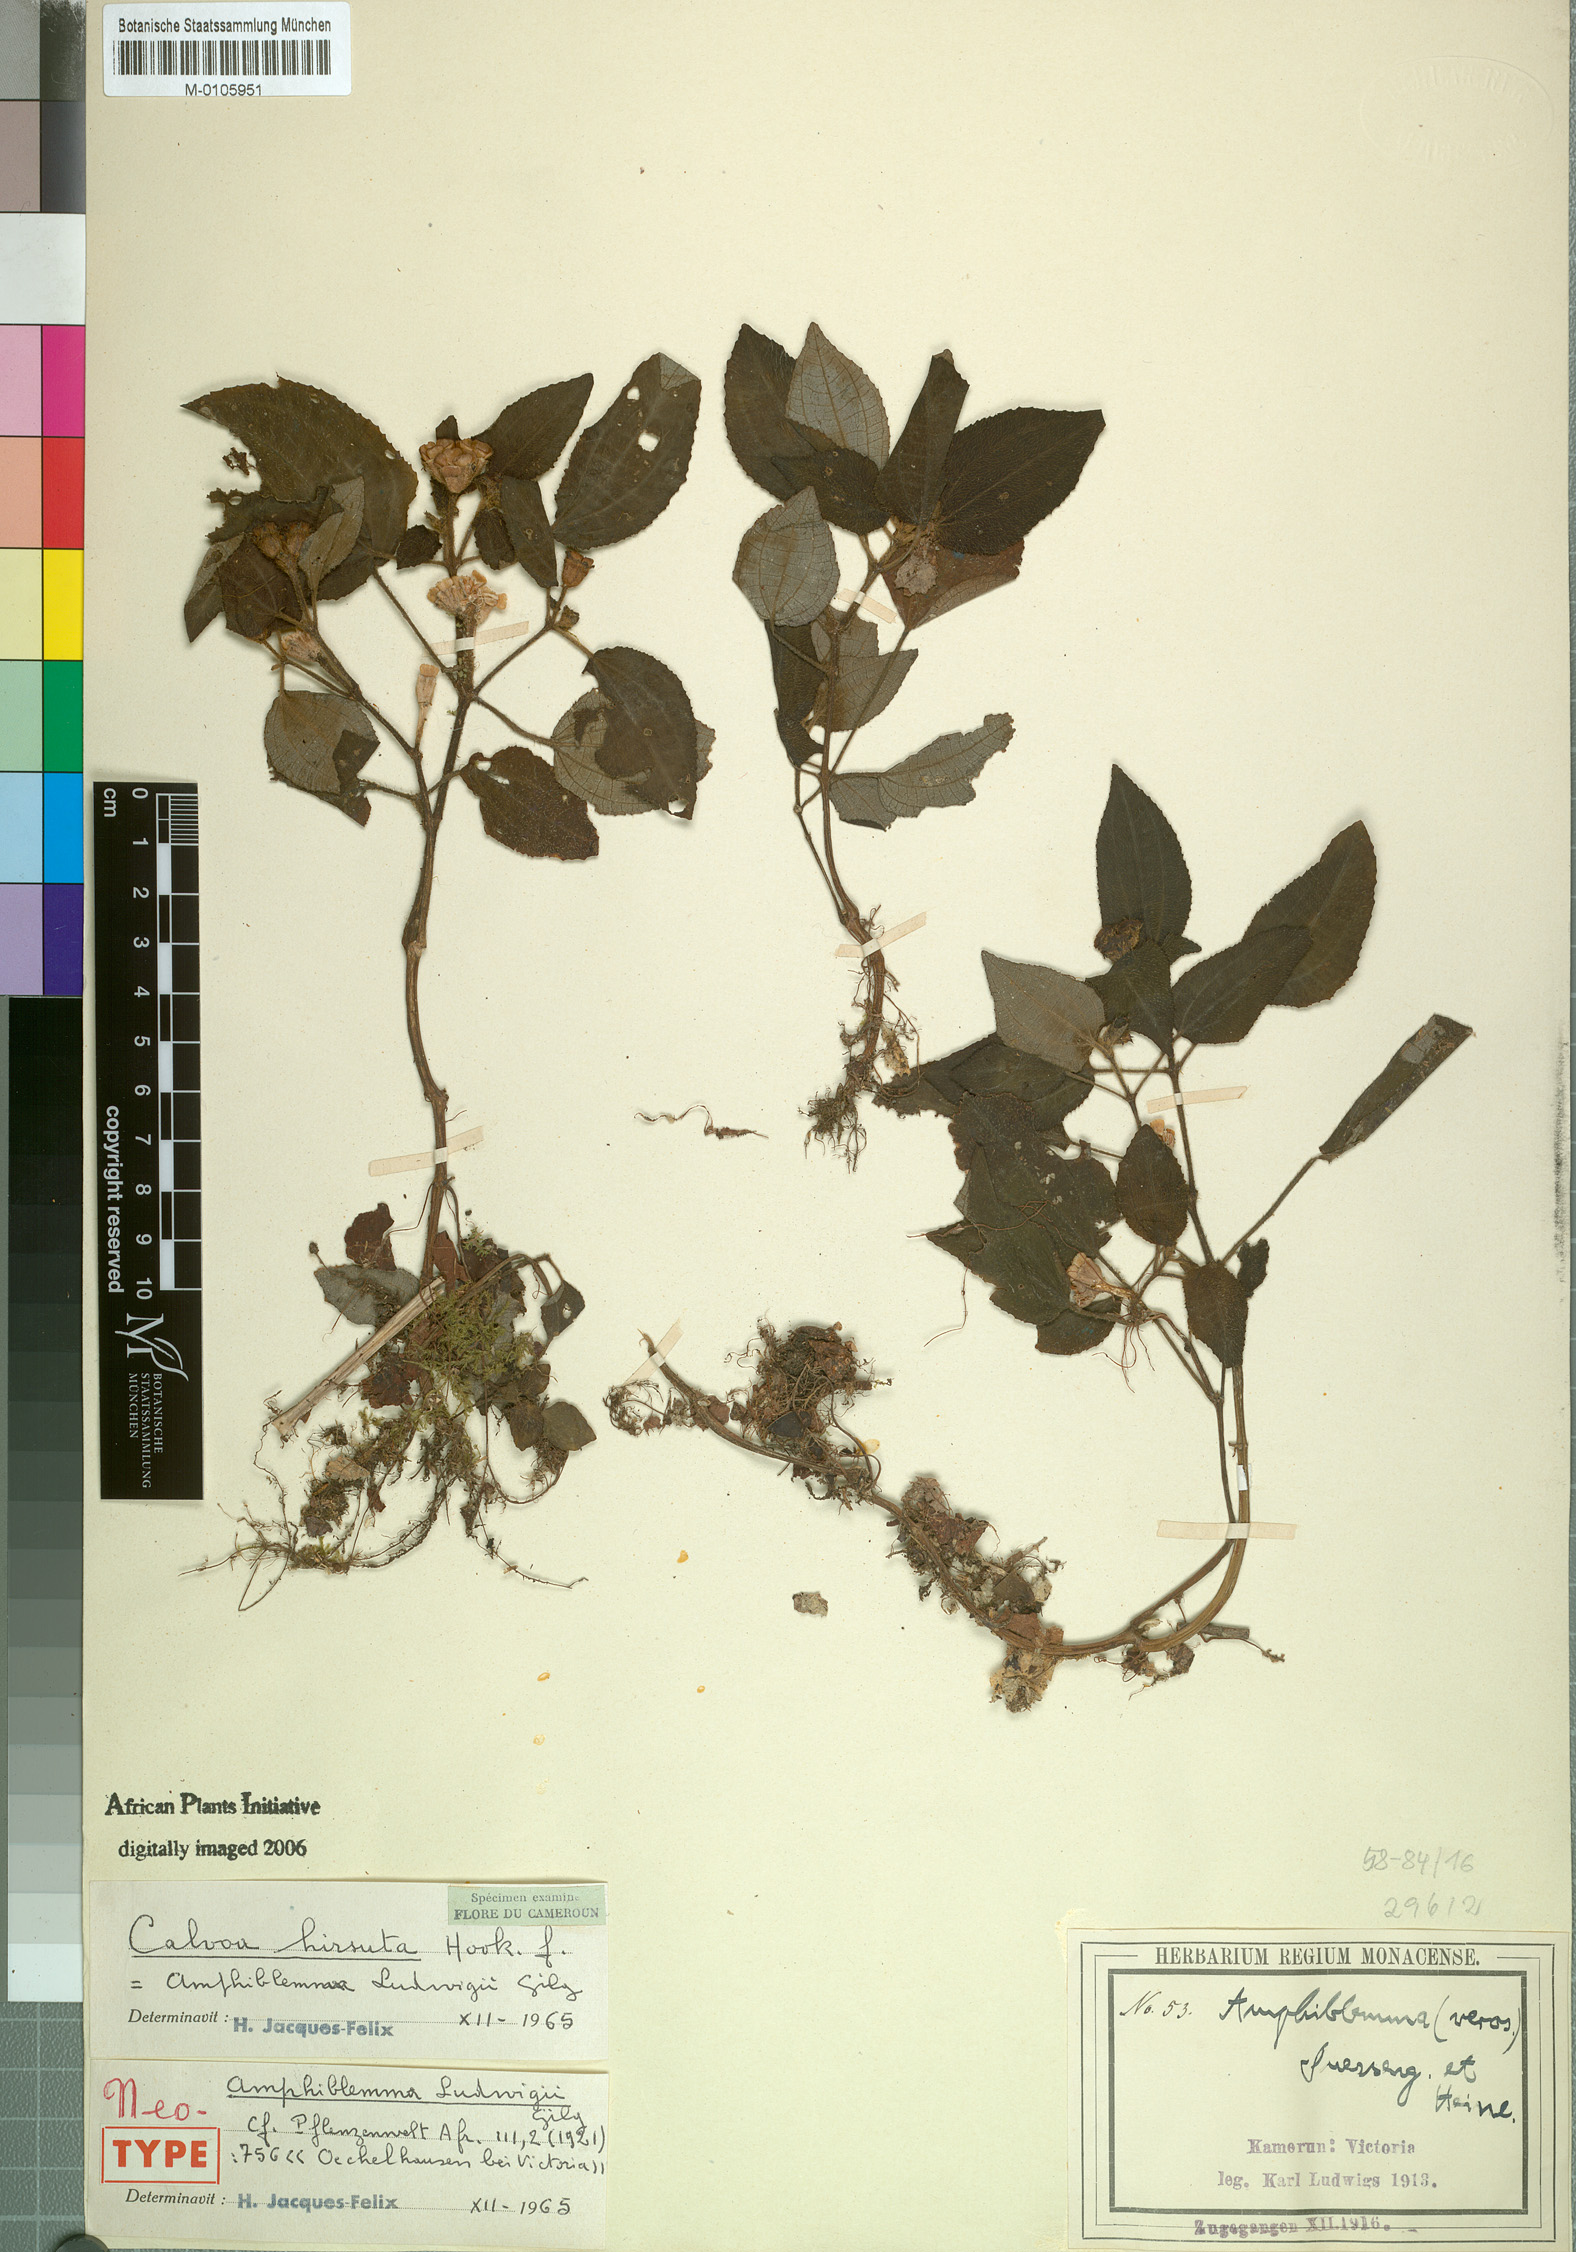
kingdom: Plantae
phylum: Tracheophyta
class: Magnoliopsida
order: Myrtales
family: Melastomataceae
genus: Calvoa
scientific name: Calvoa hirsuta
